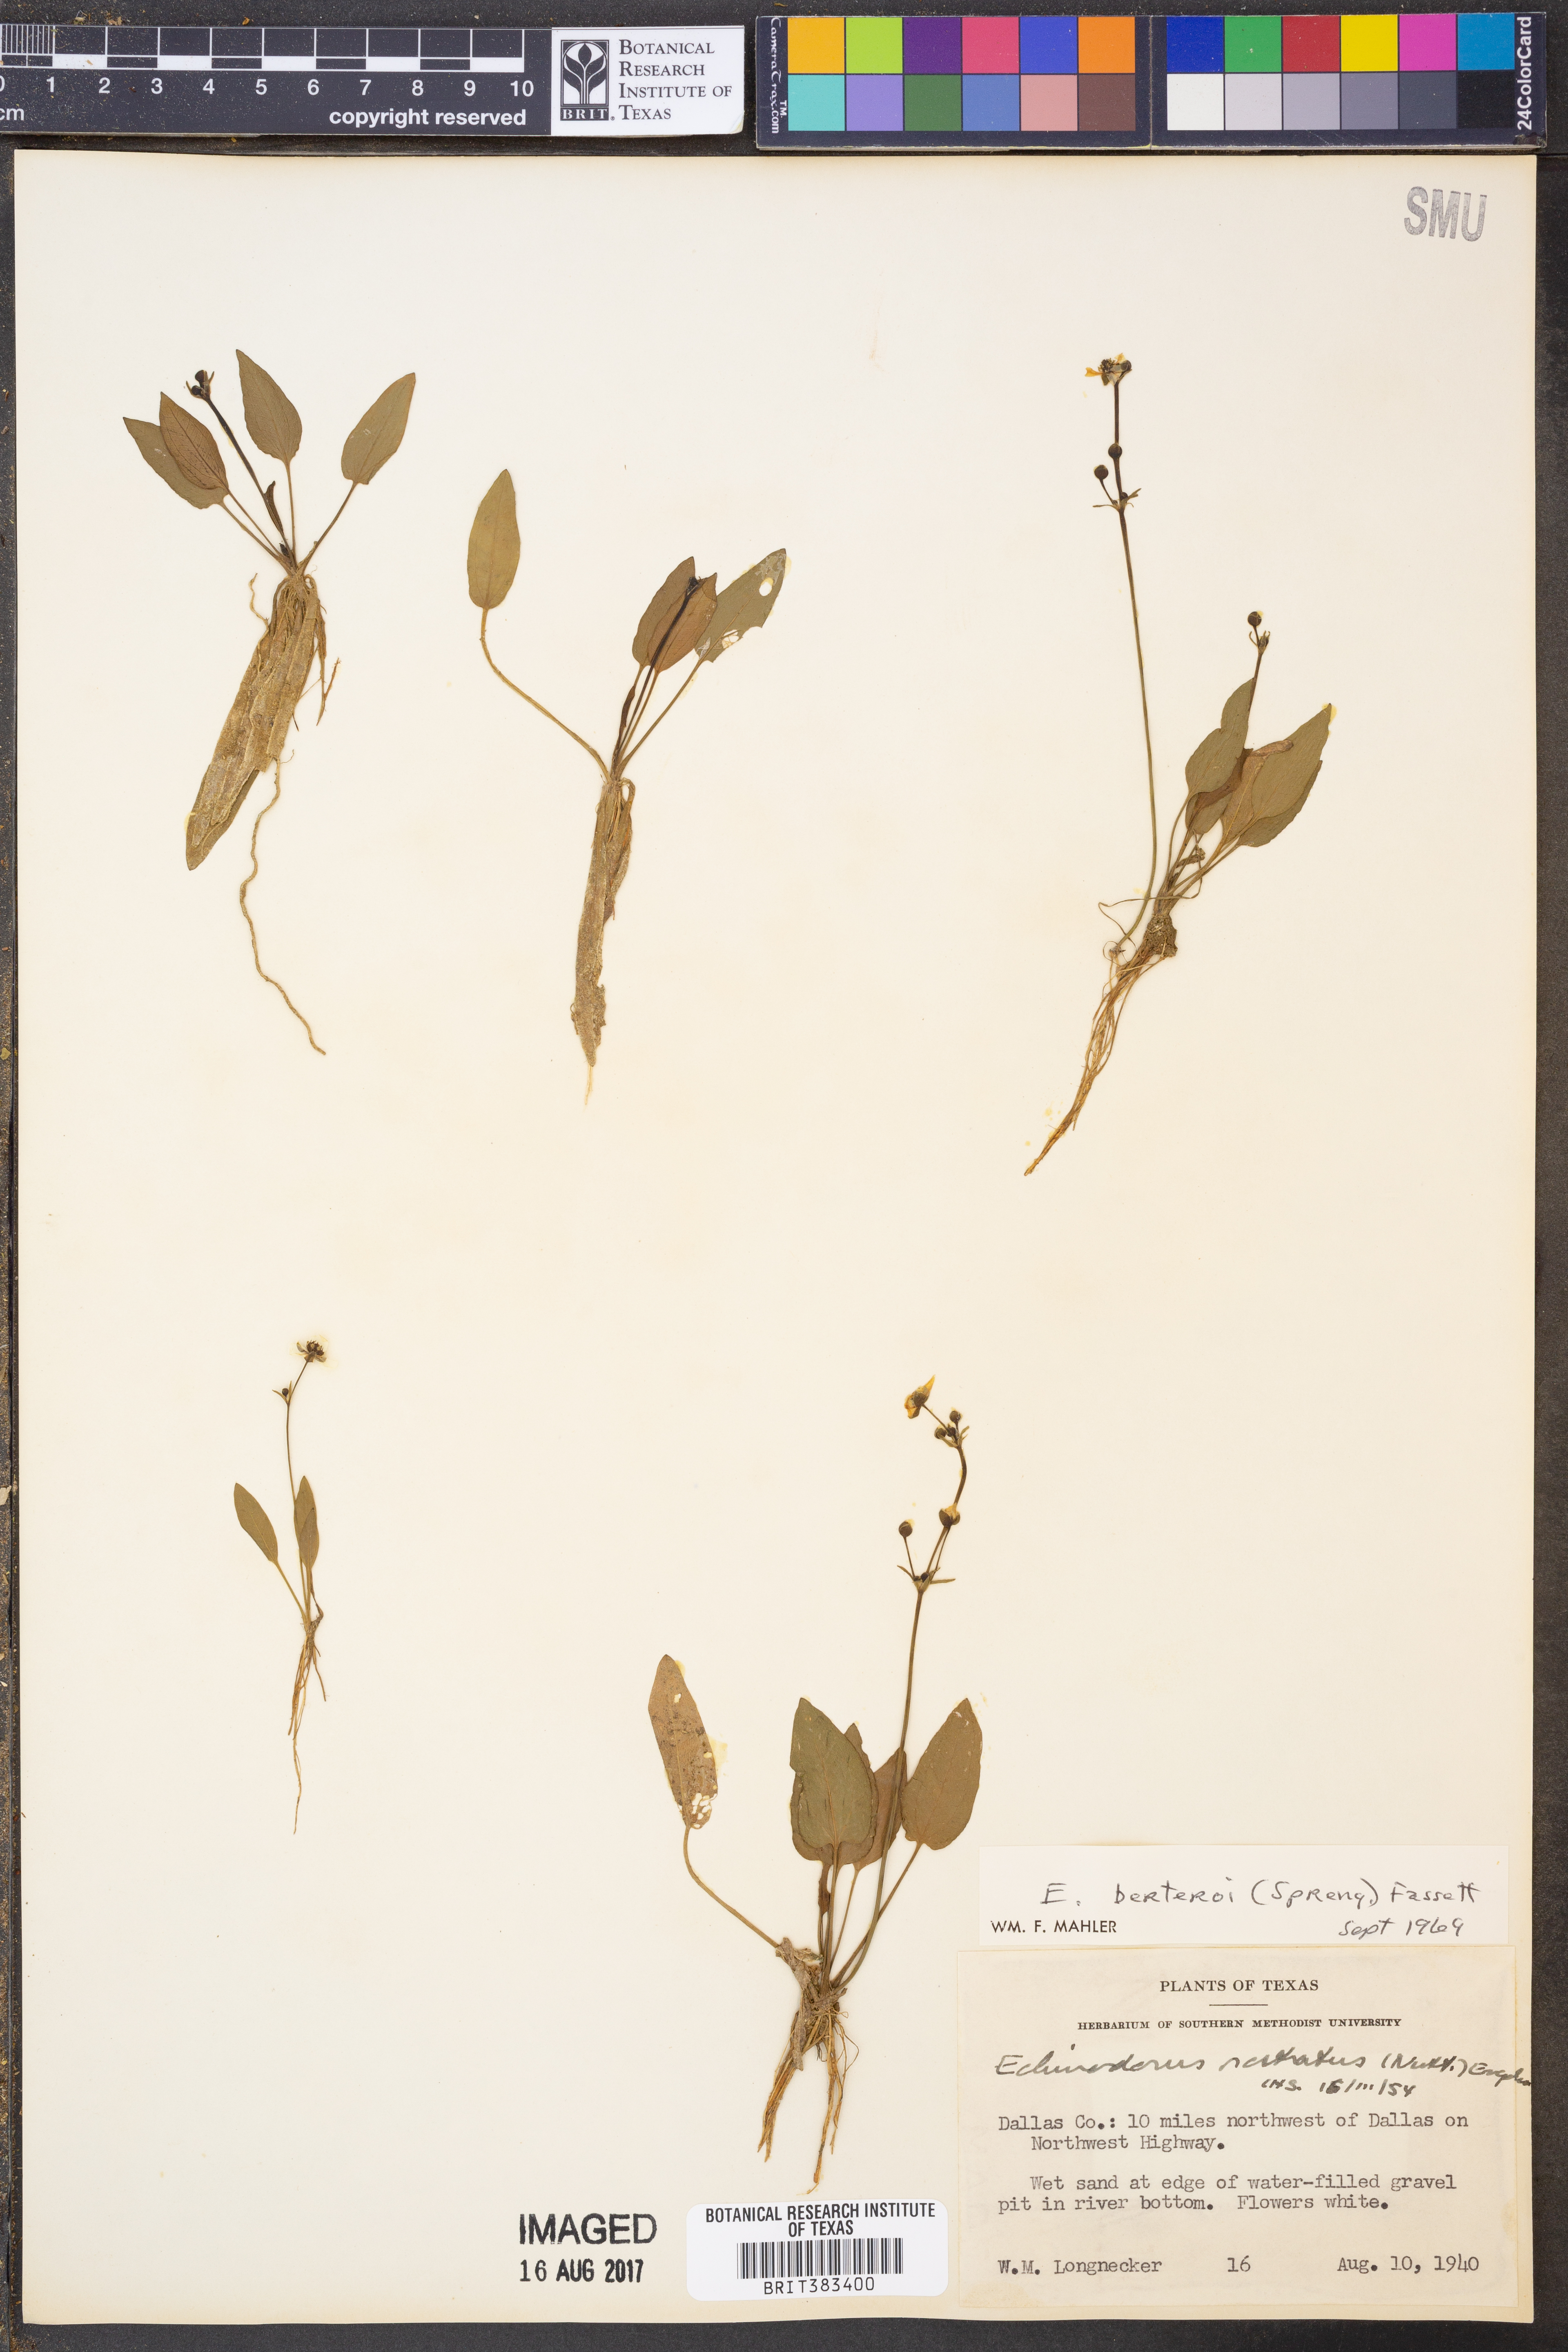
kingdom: Plantae
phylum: Tracheophyta
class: Liliopsida
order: Alismatales
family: Alismataceae
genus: Echinodorus
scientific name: Echinodorus berteroi
